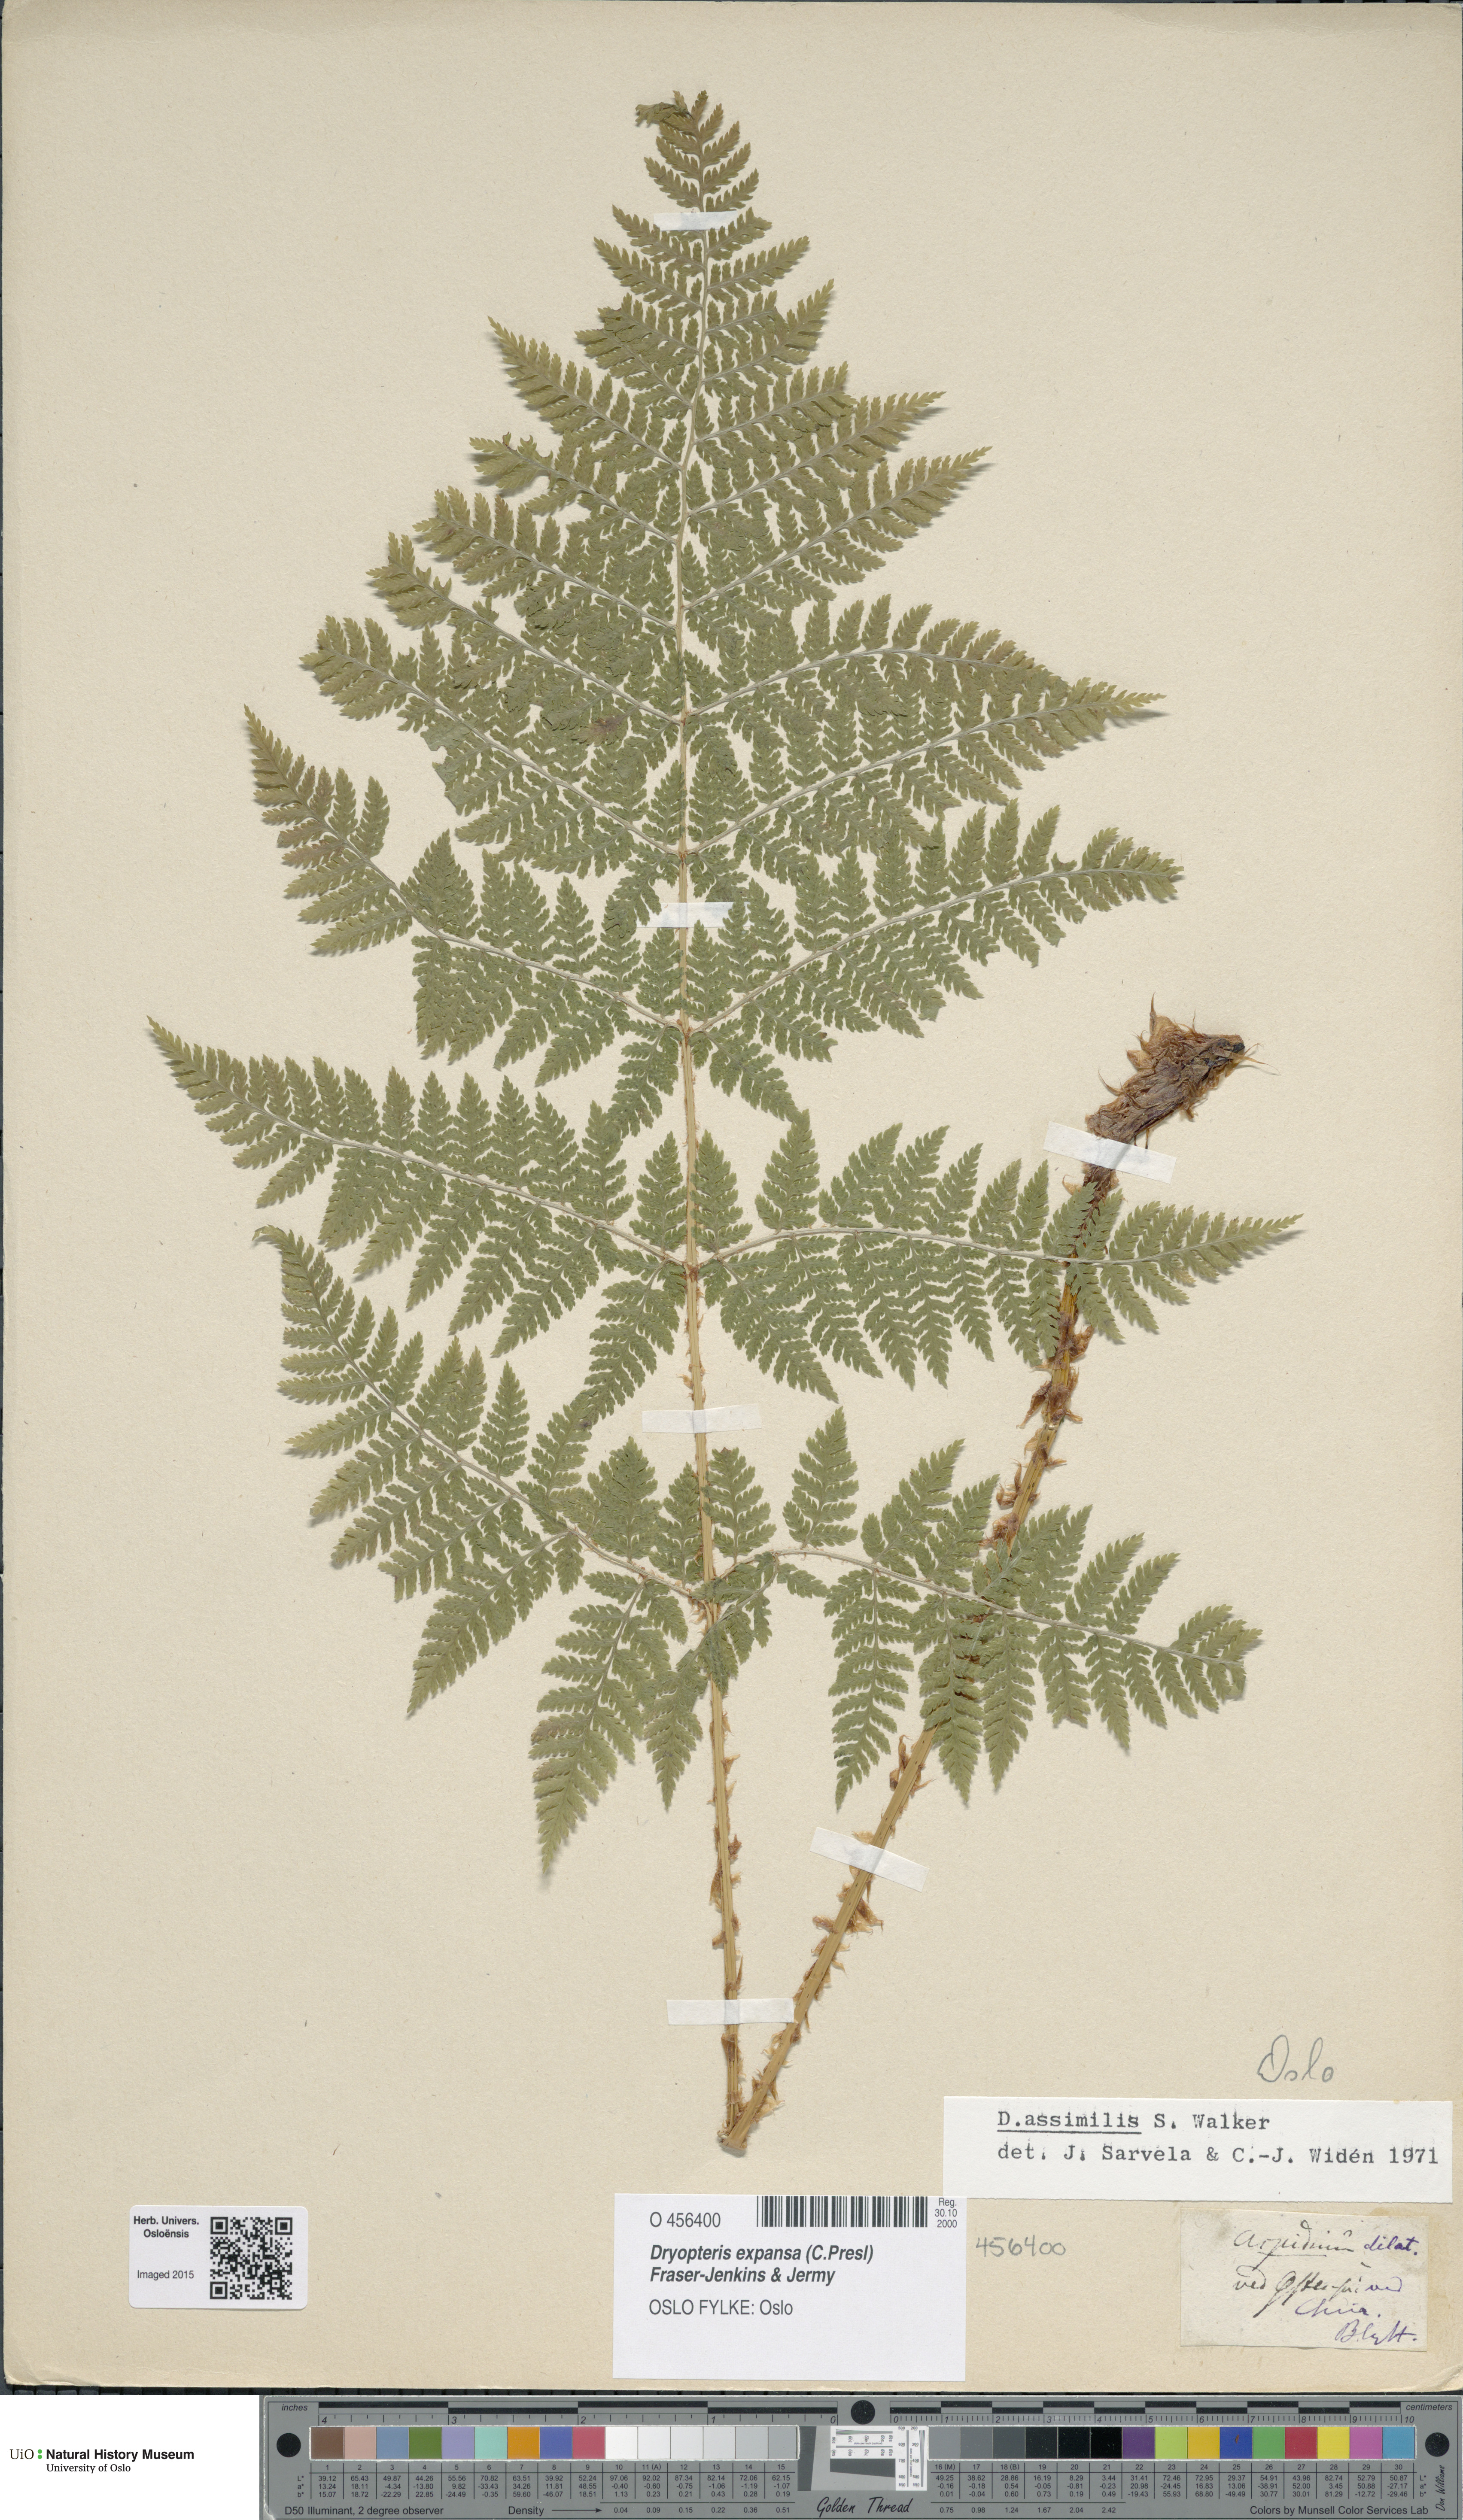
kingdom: Plantae
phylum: Tracheophyta
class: Polypodiopsida
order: Polypodiales
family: Dryopteridaceae
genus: Dryopteris
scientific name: Dryopteris expansa
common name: Northern buckler fern
